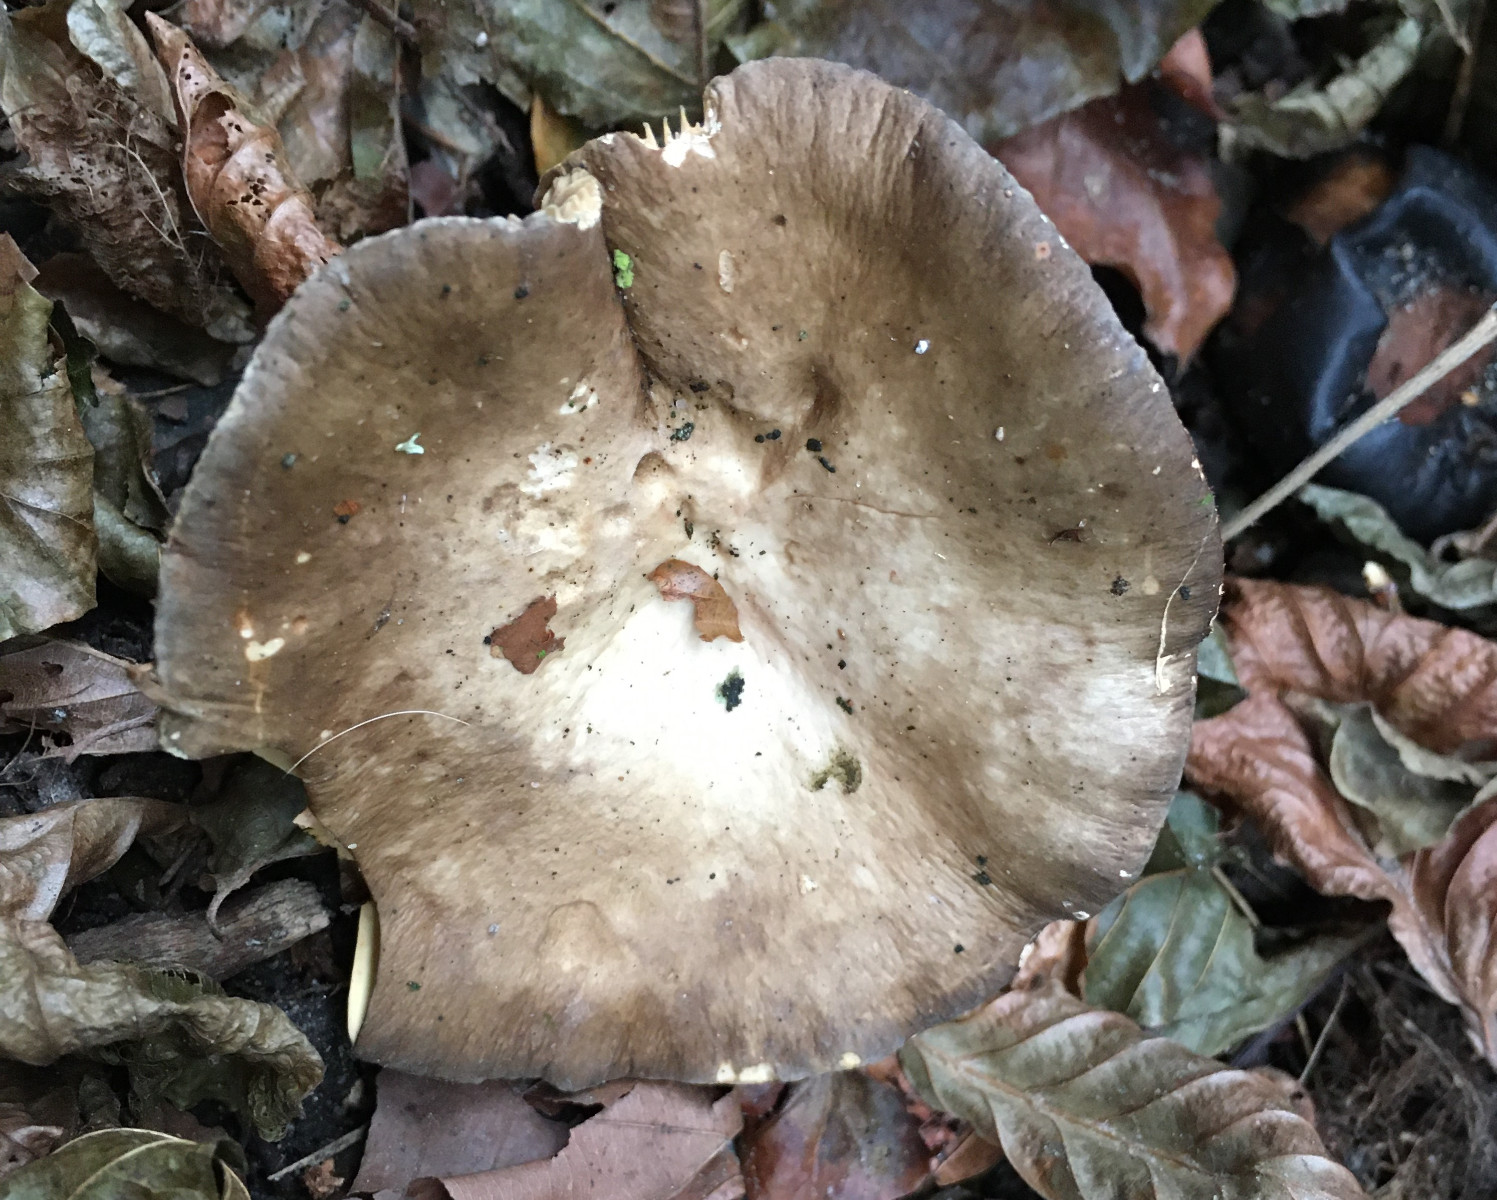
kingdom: Fungi
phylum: Basidiomycota
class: Agaricomycetes
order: Russulales
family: Russulaceae
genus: Lactarius
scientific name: Lactarius romagnesii
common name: fjernbladet mælkehat
